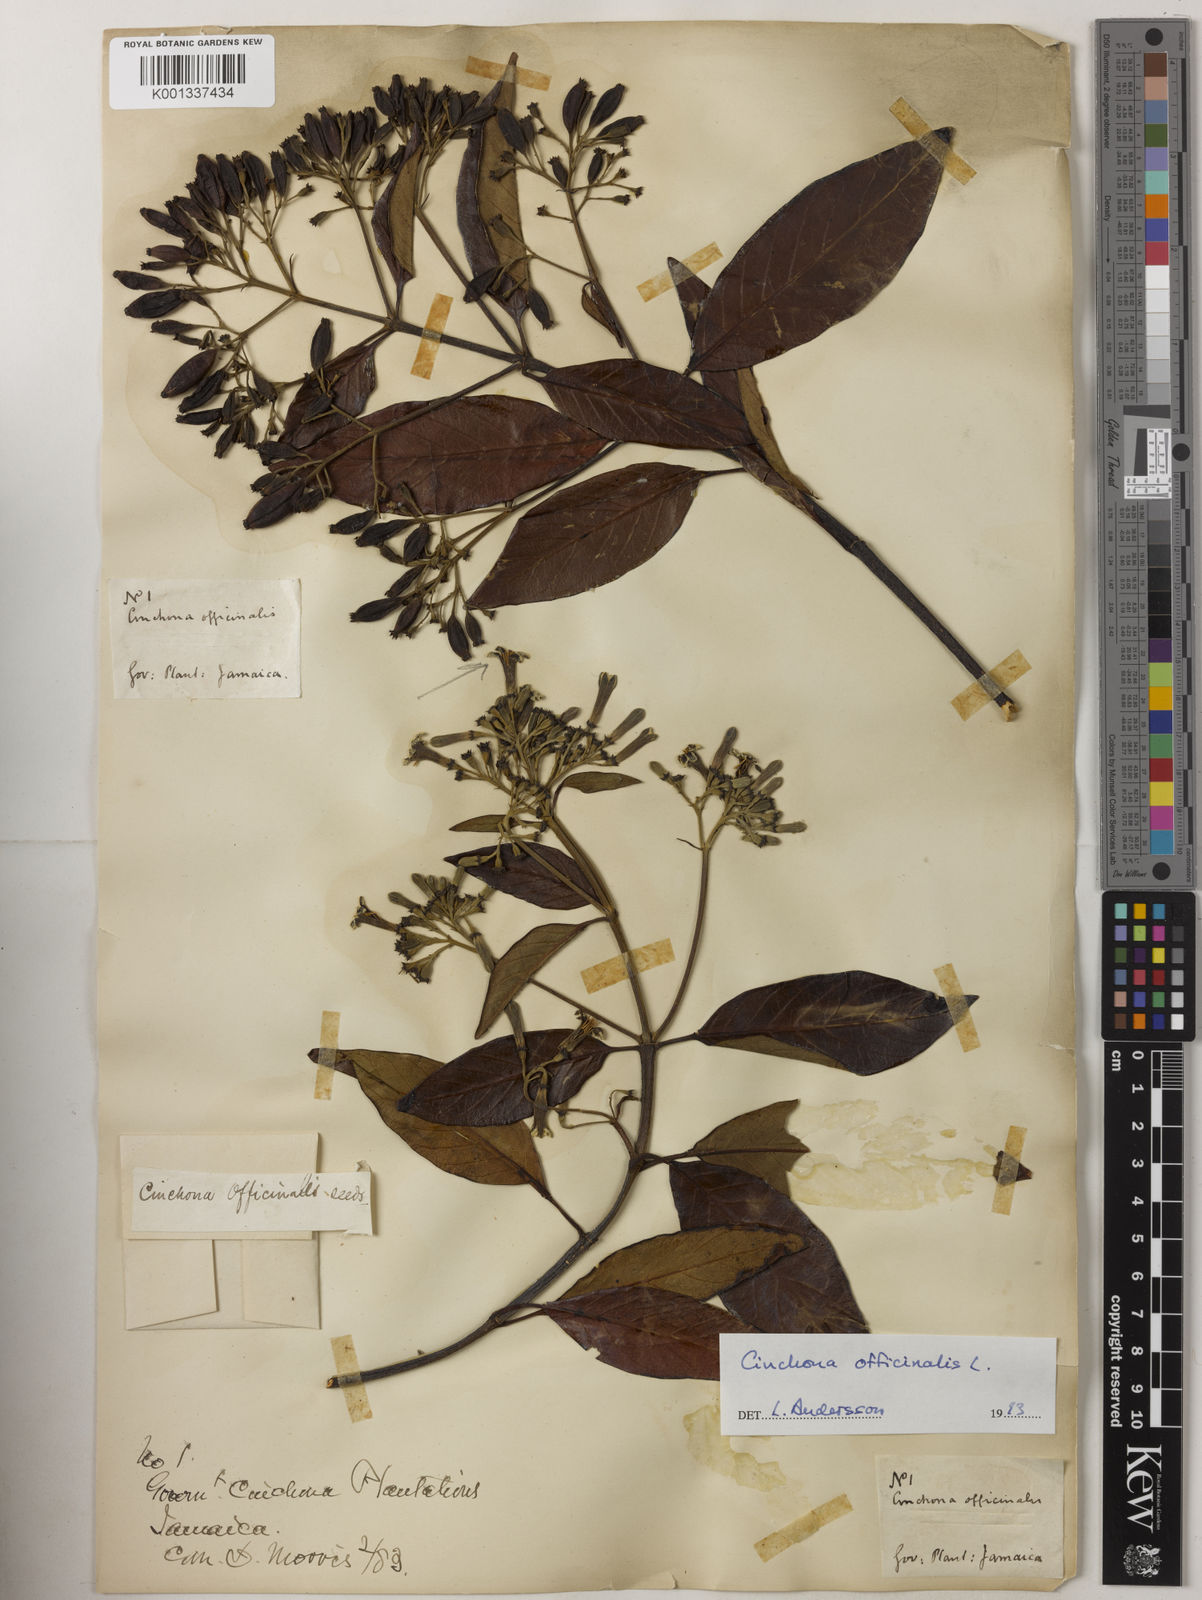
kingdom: Plantae
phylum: Tracheophyta
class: Magnoliopsida
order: Gentianales
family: Rubiaceae
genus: Cinchona
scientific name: Cinchona officinalis
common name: Lojabark
